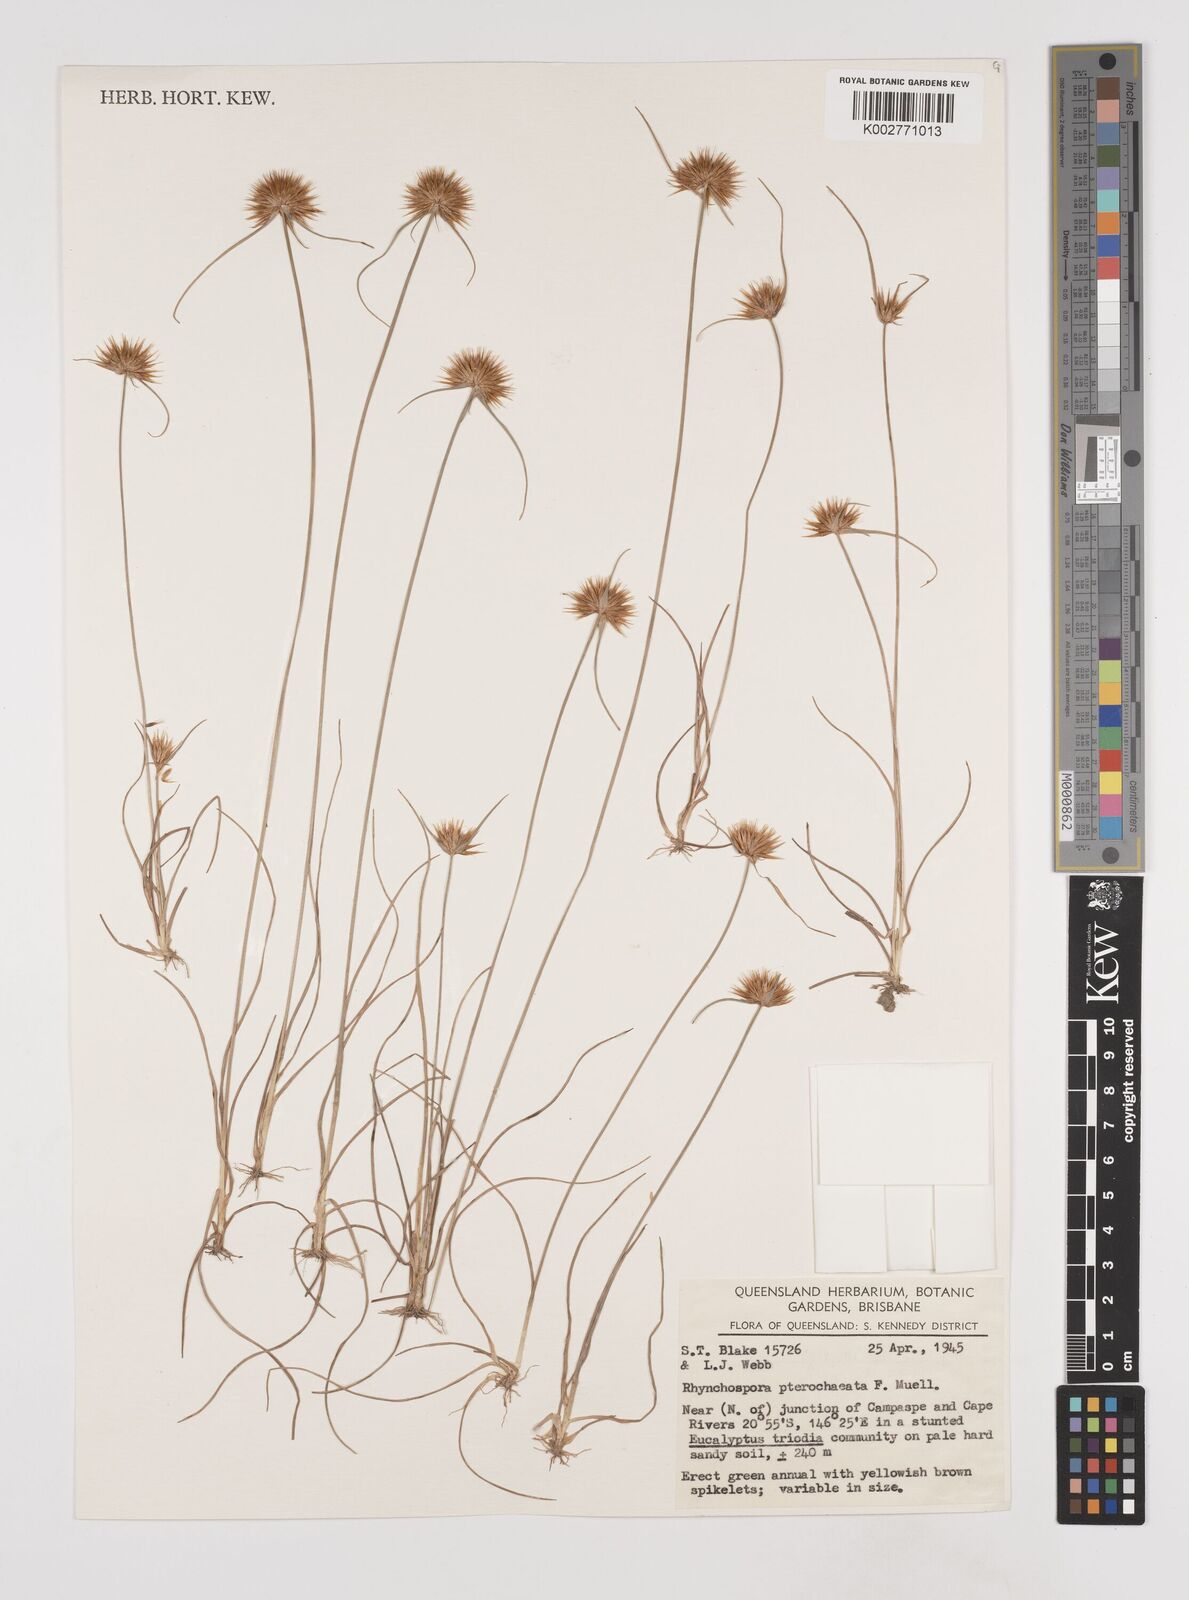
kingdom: Plantae
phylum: Tracheophyta
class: Liliopsida
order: Poales
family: Cyperaceae
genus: Rhynchospora
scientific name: Rhynchospora pterochaeta
